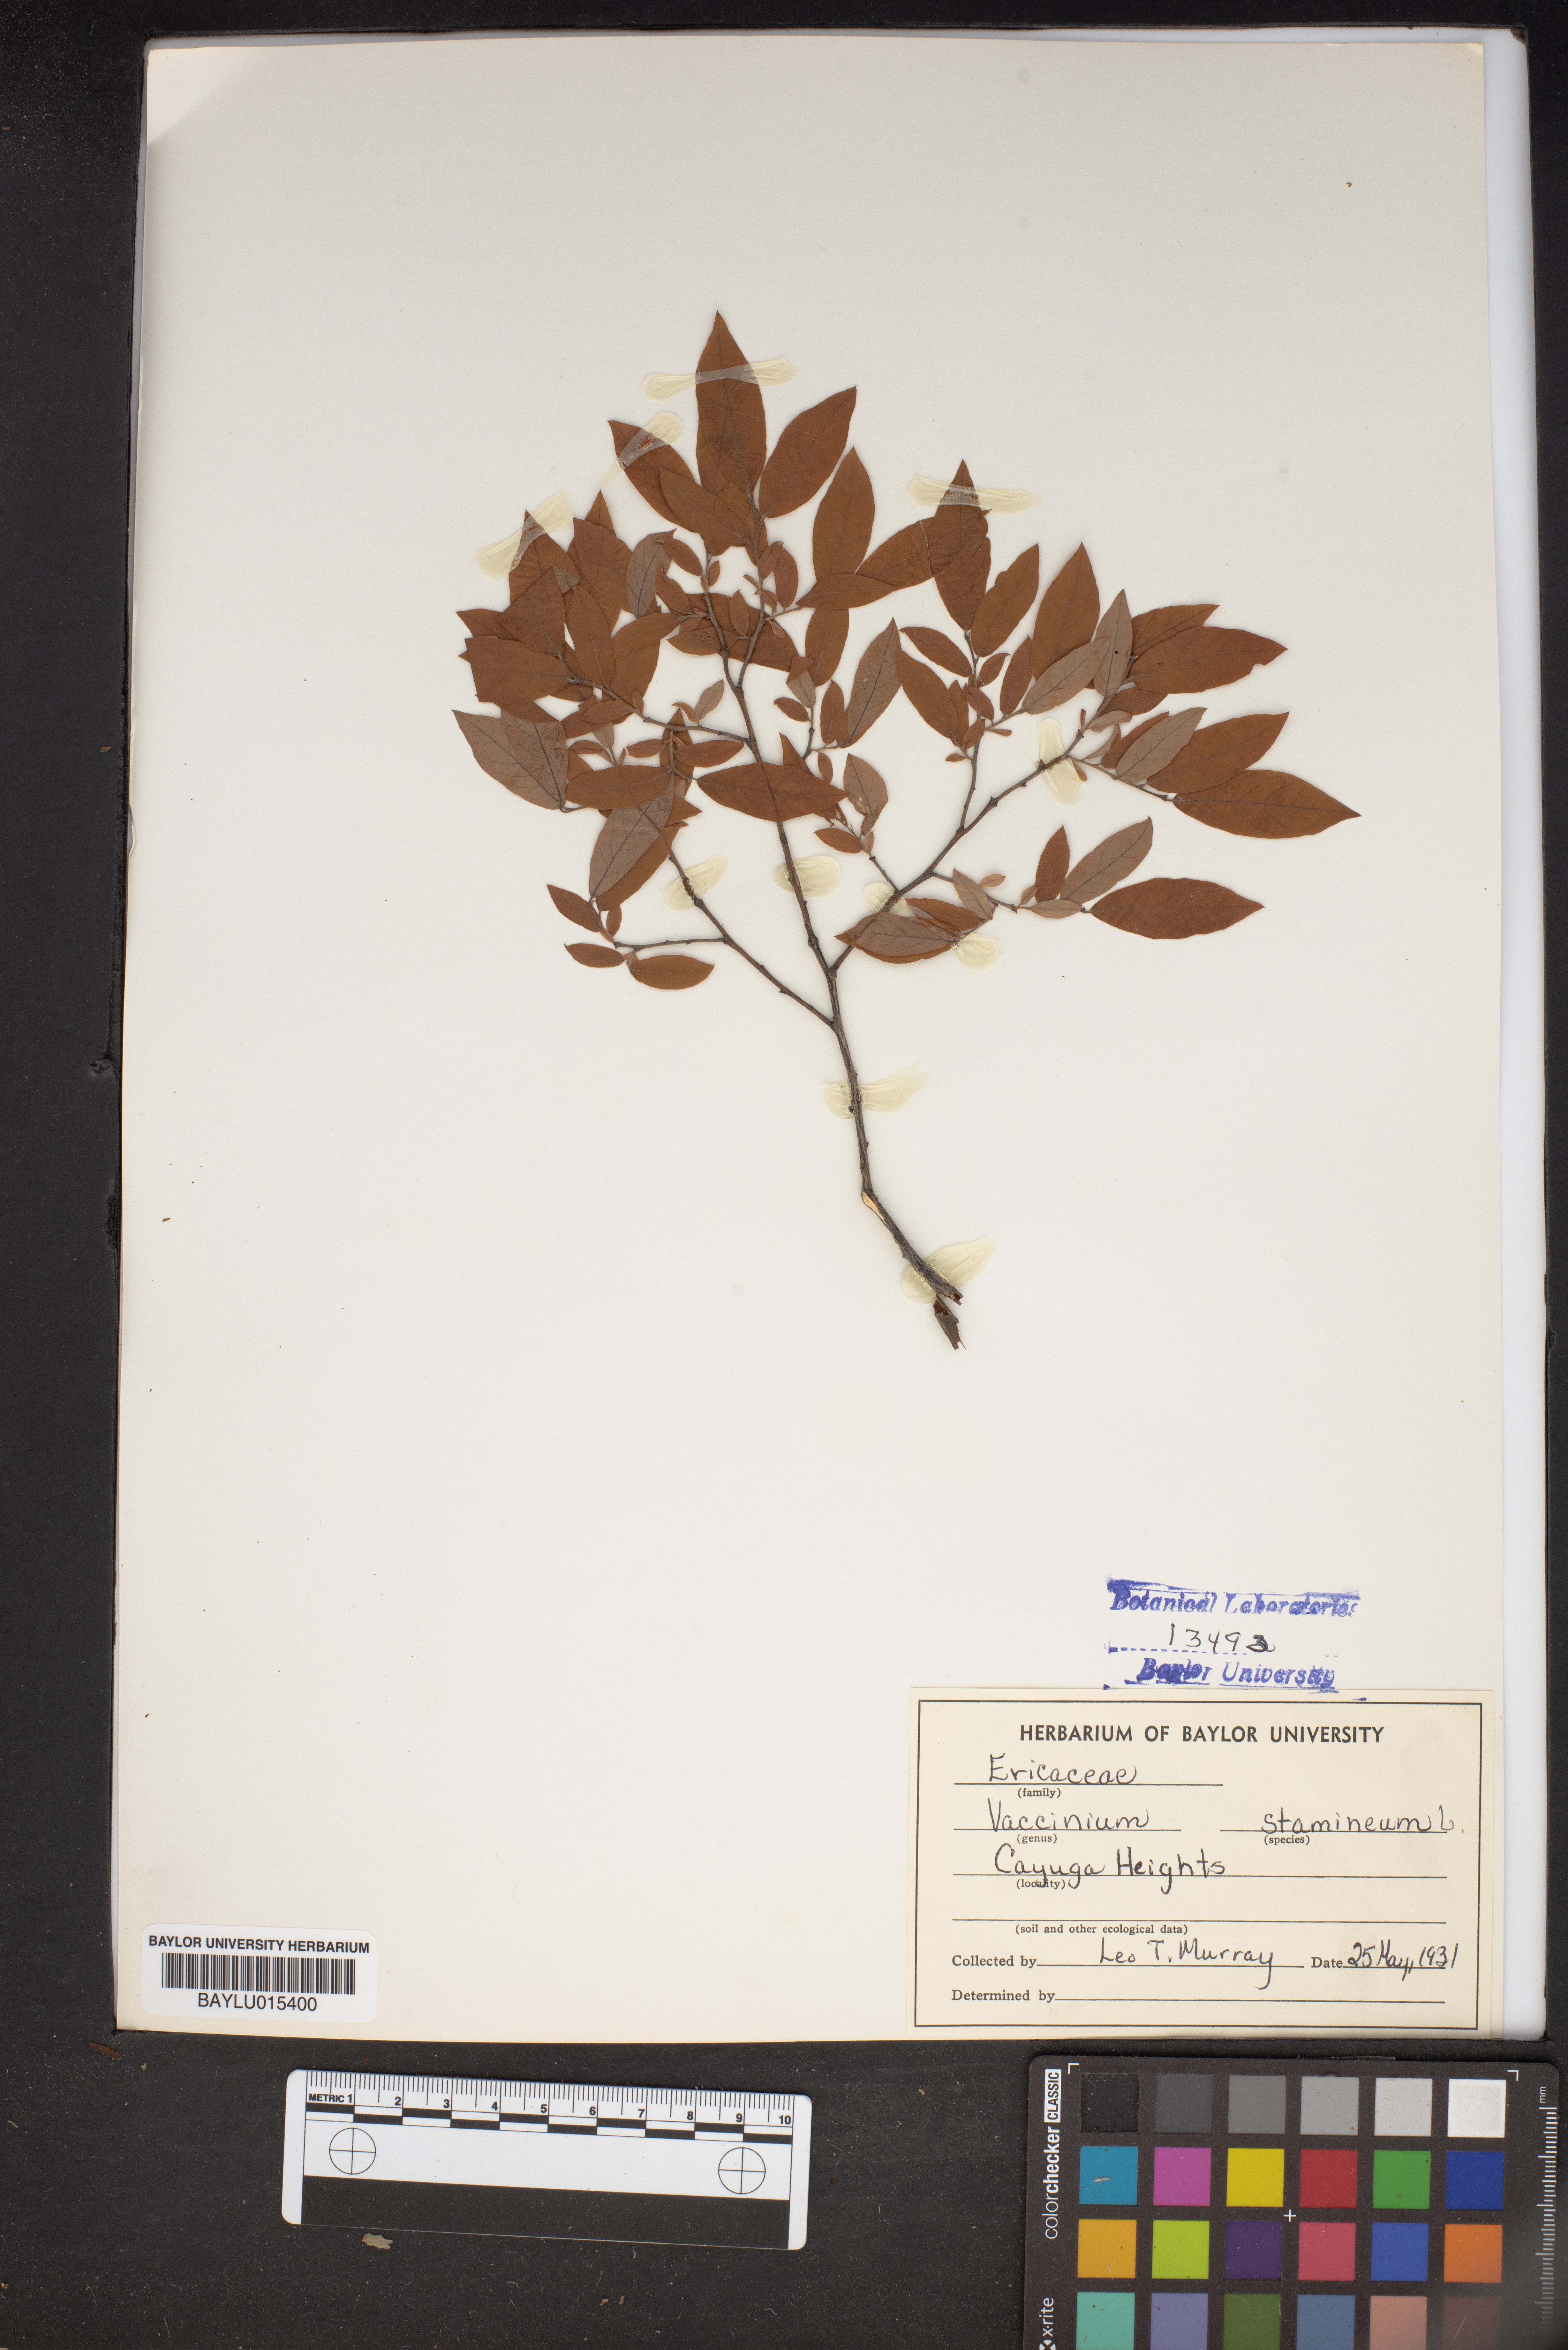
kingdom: Plantae
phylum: Tracheophyta
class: Magnoliopsida
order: Ericales
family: Ericaceae
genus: Vaccinium
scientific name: Vaccinium stamineum
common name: Deerberry
